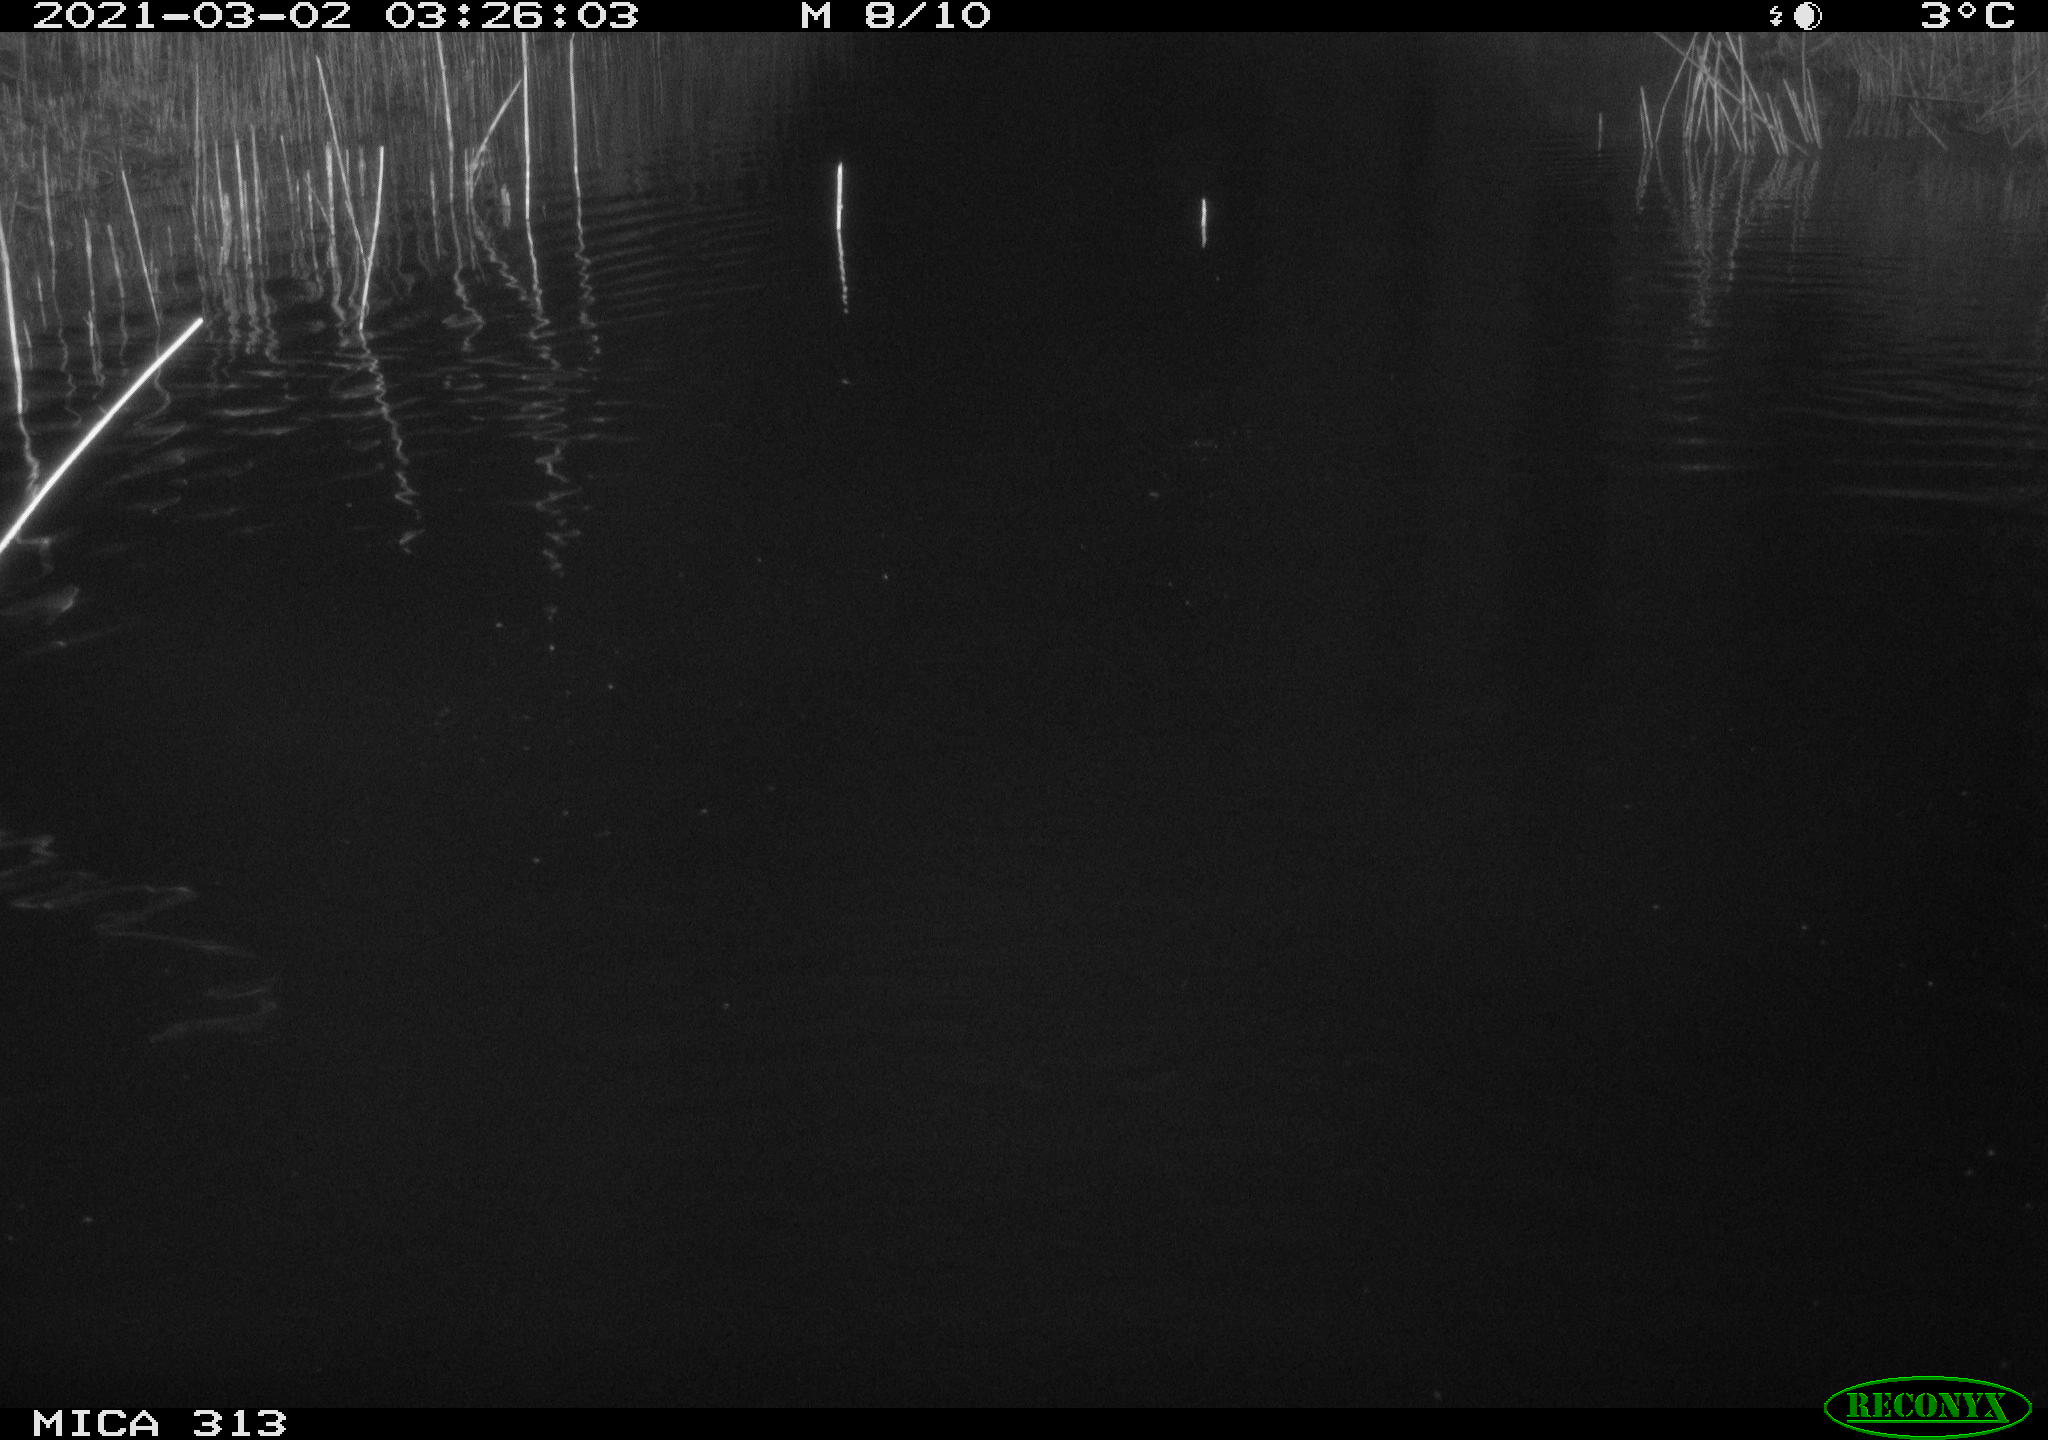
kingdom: Animalia
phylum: Chordata
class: Mammalia
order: Rodentia
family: Cricetidae
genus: Ondatra
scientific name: Ondatra zibethicus
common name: Muskrat
